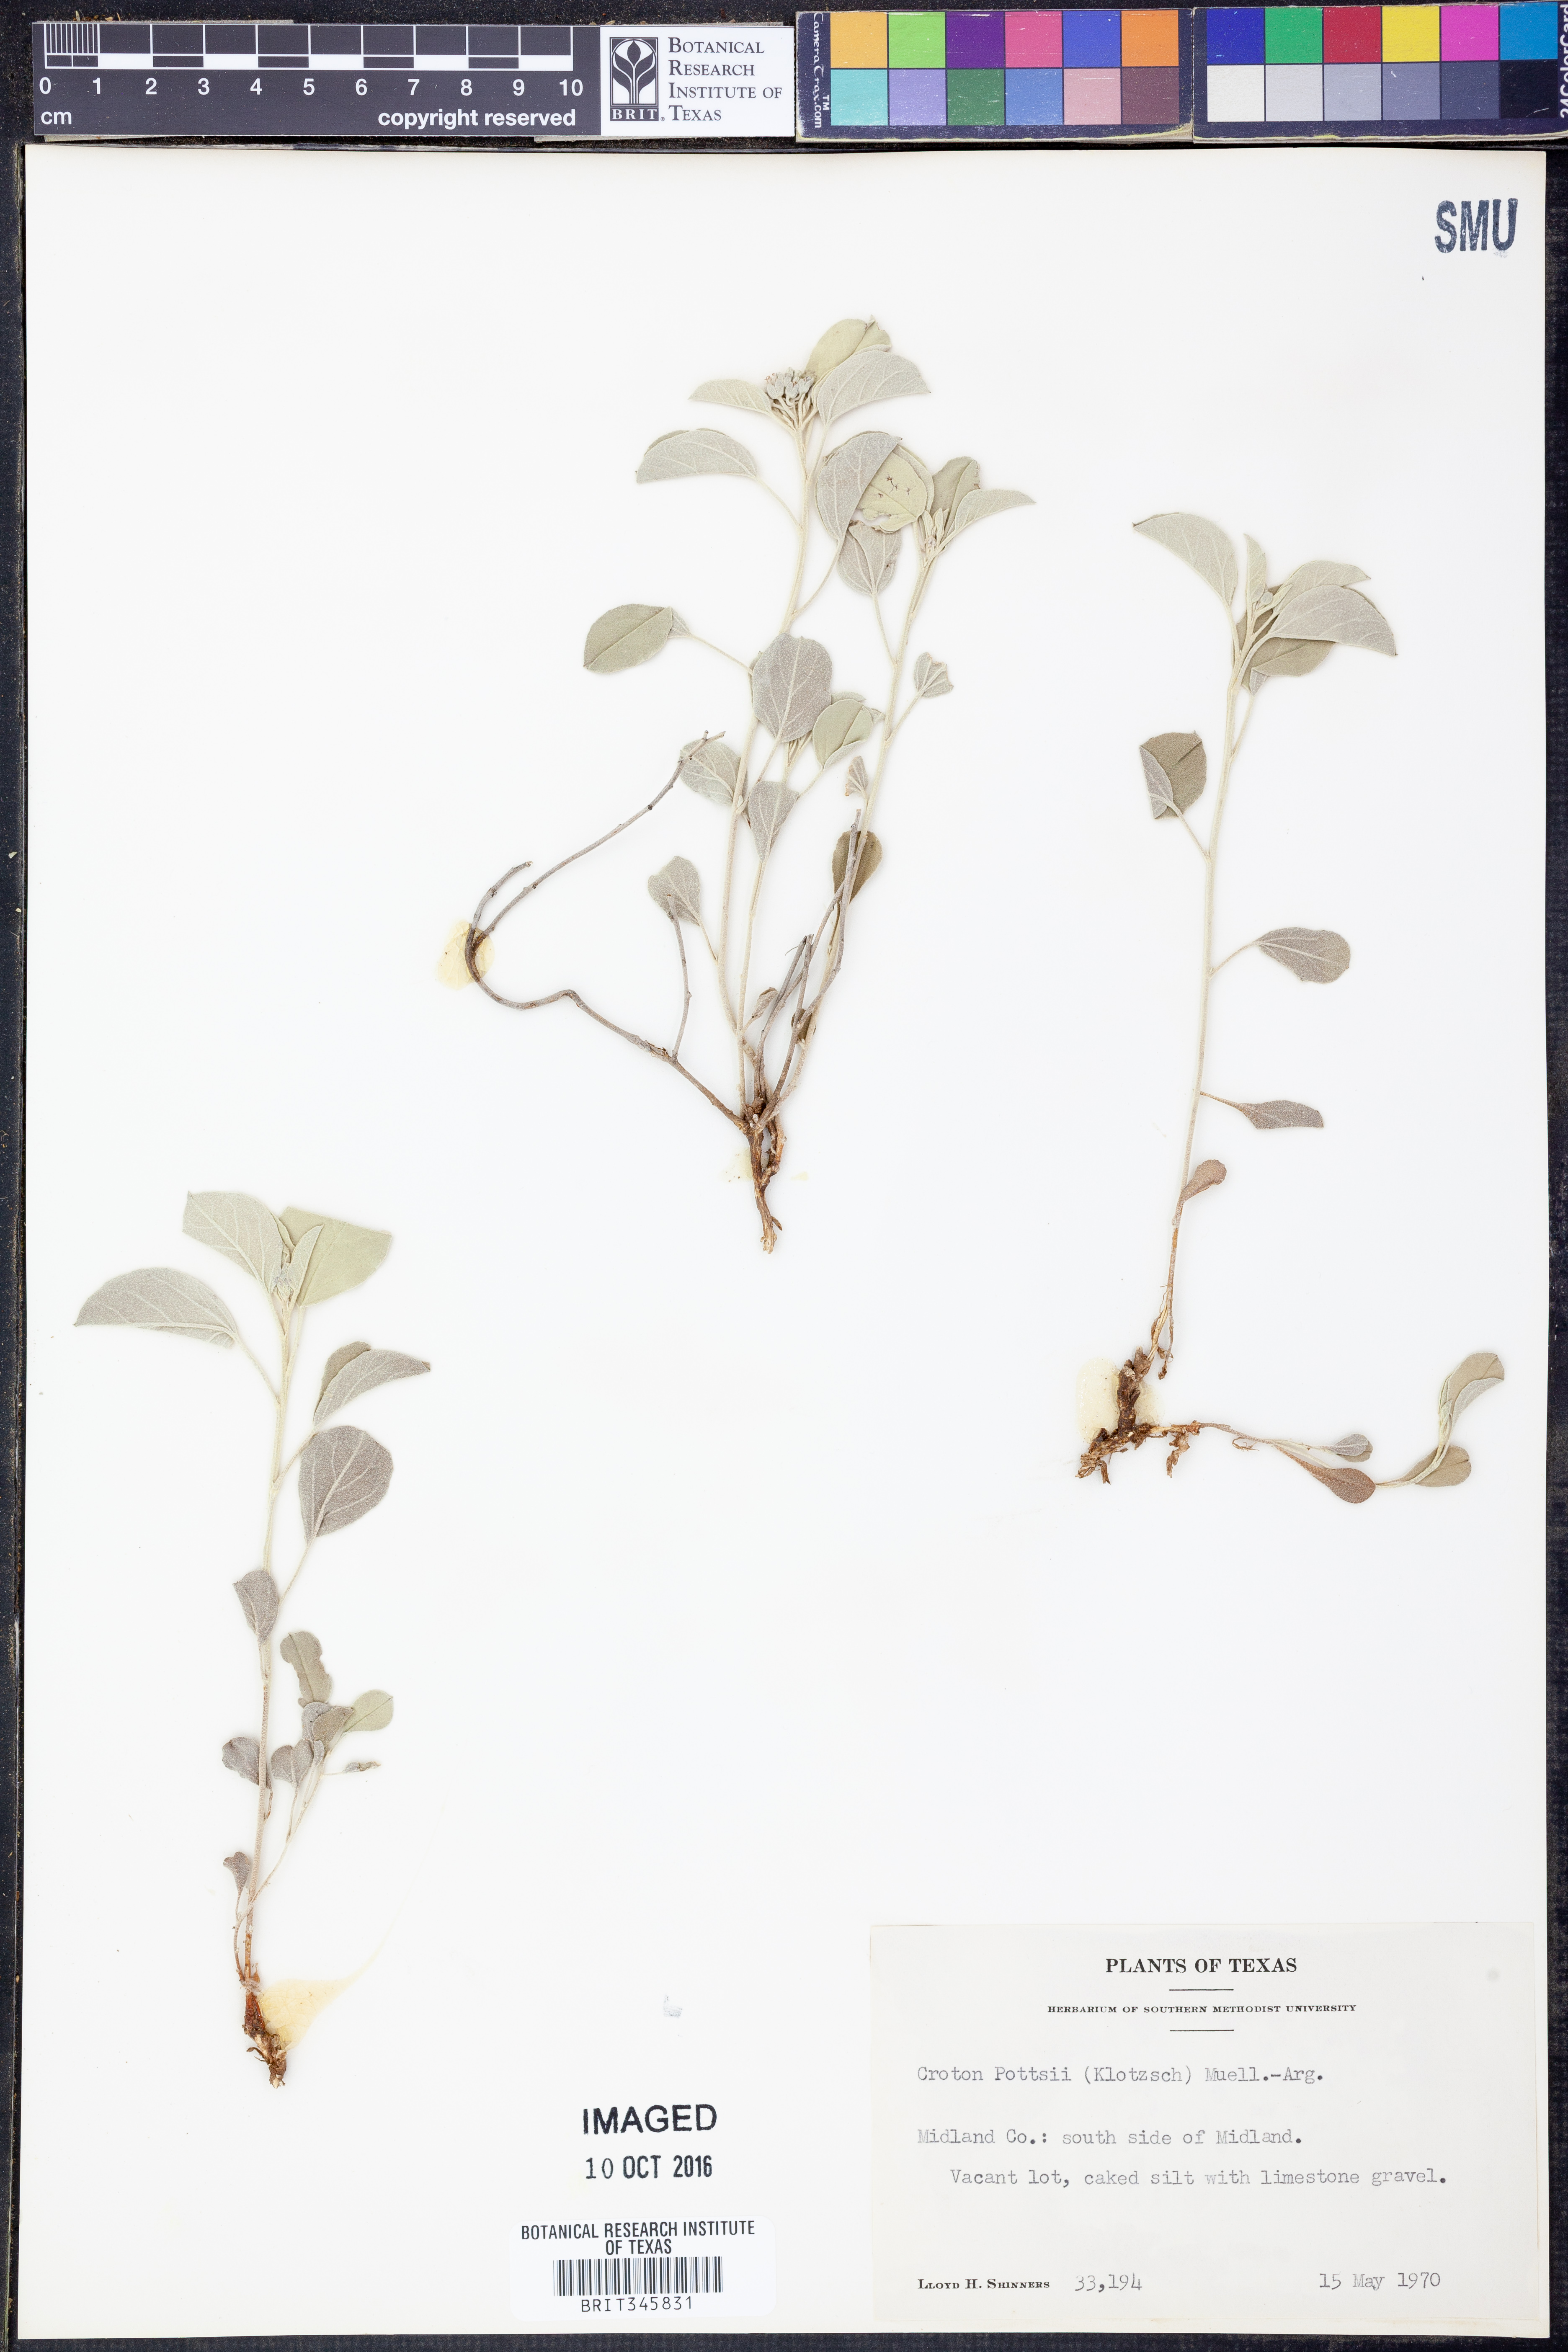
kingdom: Plantae
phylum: Tracheophyta
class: Magnoliopsida
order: Malpighiales
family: Euphorbiaceae
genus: Croton
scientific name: Croton pottsii
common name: Leatherweed
